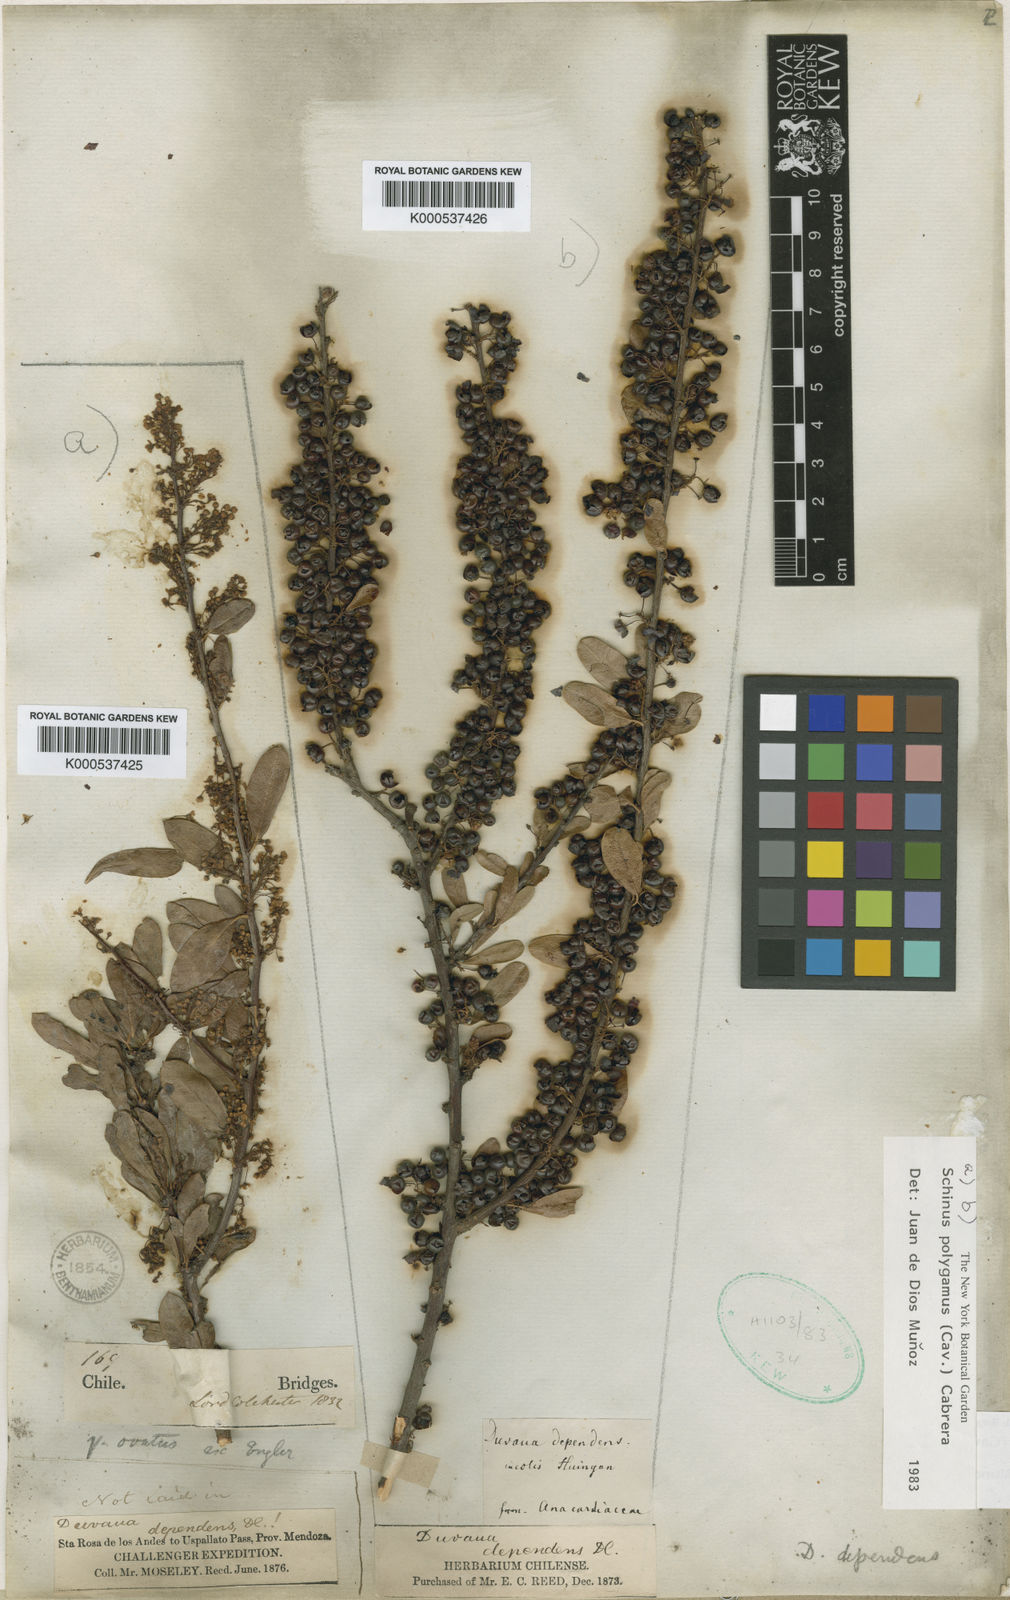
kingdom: Plantae
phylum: Tracheophyta
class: Magnoliopsida
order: Sapindales
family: Anacardiaceae
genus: Schinus
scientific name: Schinus polygama
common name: Hardee peppertree
